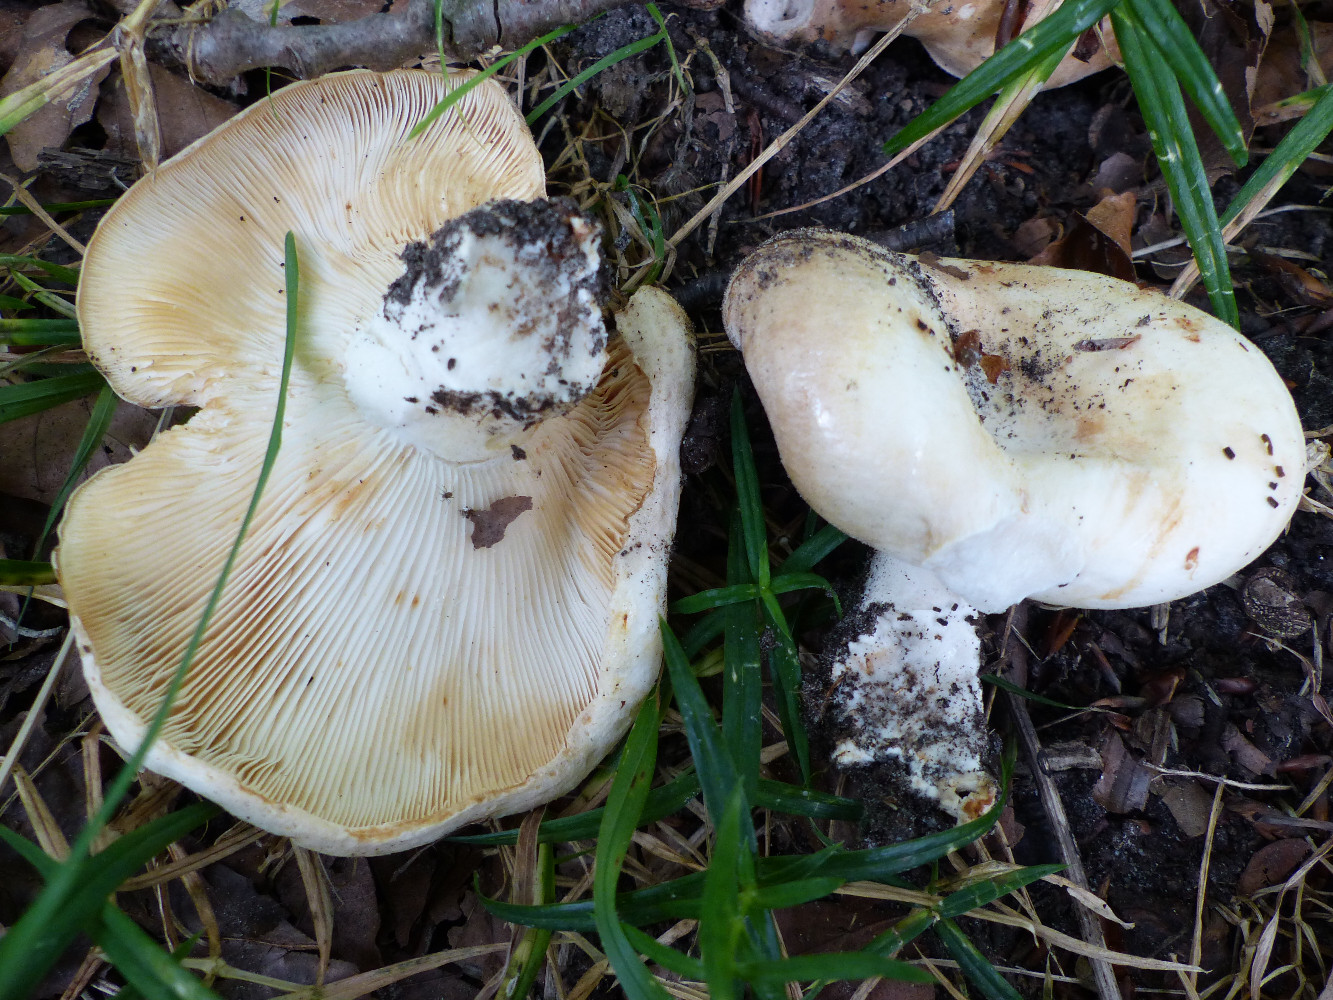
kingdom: Fungi
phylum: Basidiomycota
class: Agaricomycetes
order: Russulales
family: Russulaceae
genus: Lactarius
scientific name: Lactarius evosmus
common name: bæltet mælkehat
